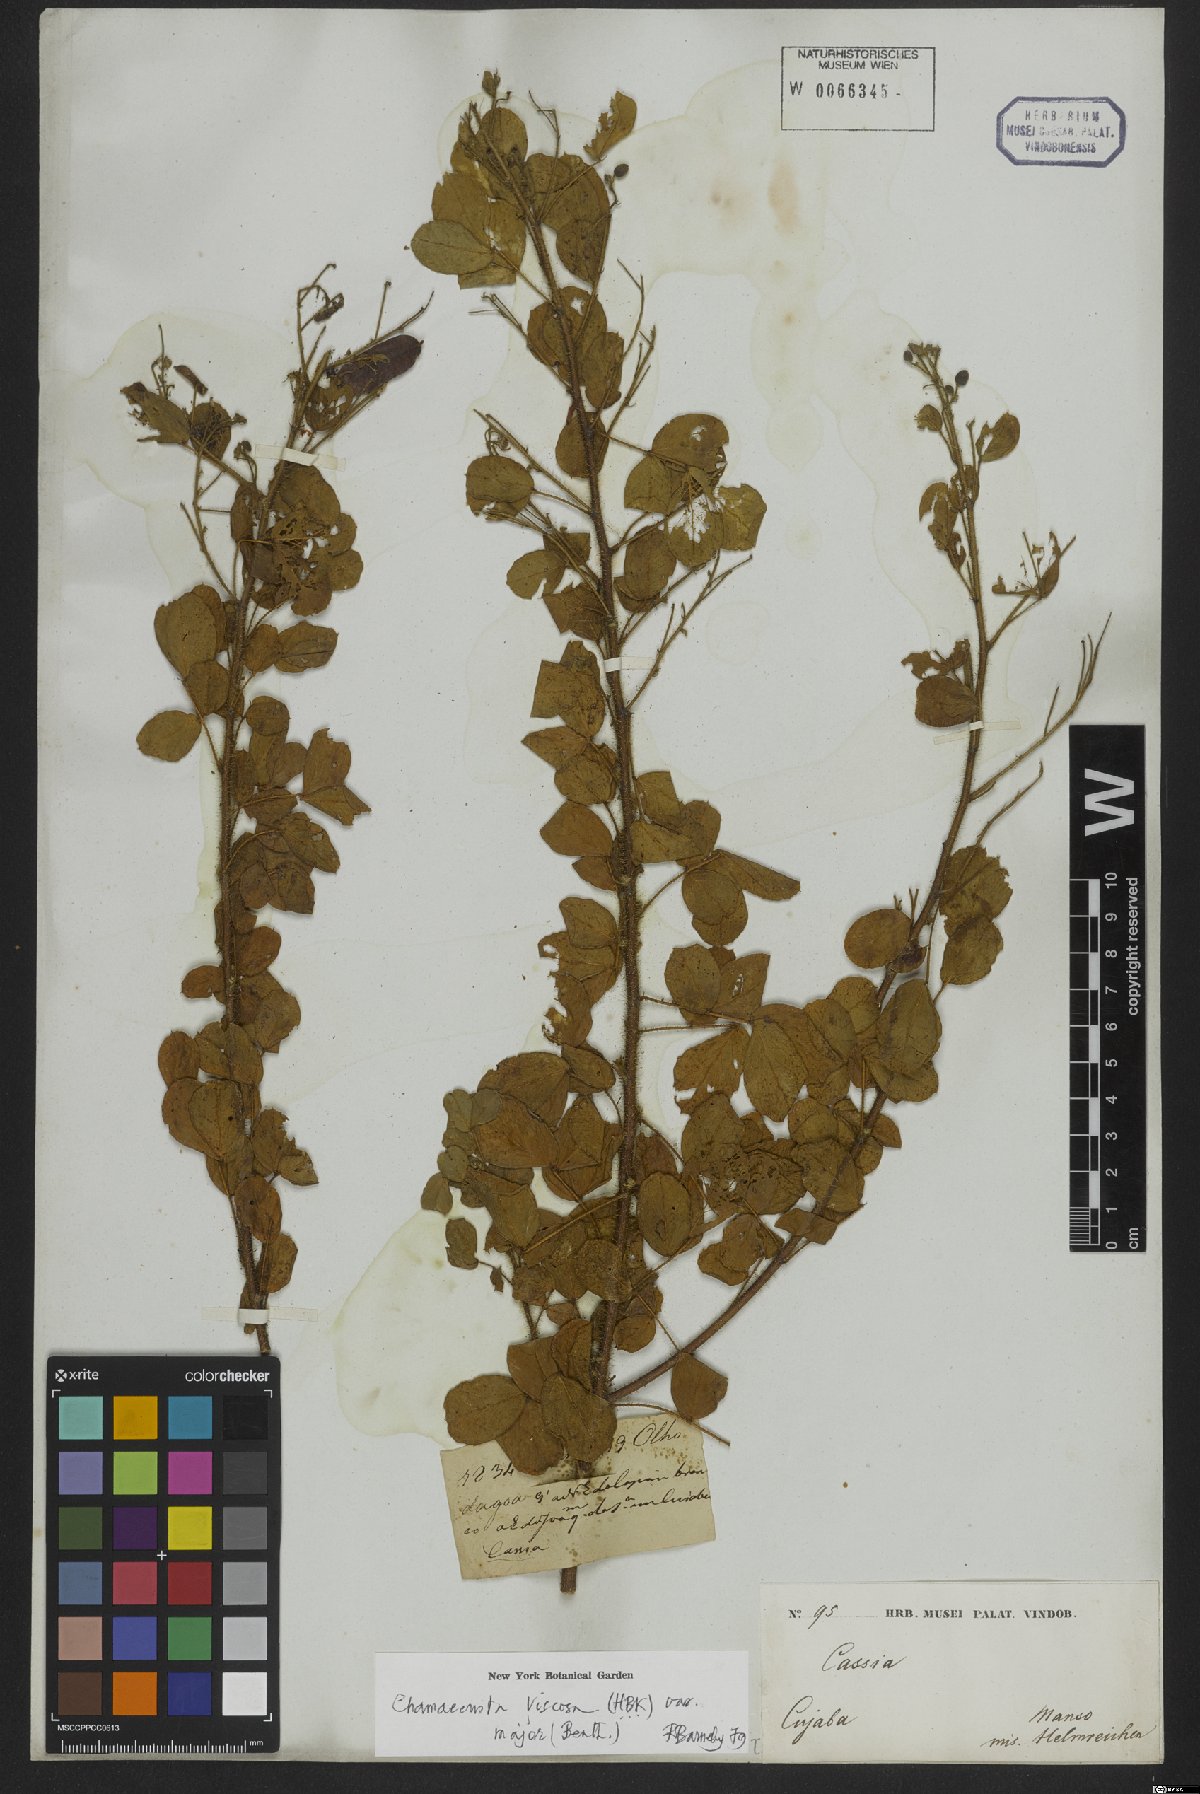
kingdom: Plantae
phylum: Tracheophyta
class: Magnoliopsida
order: Fabales
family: Fabaceae
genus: Chamaecrista
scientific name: Chamaecrista viscosa
